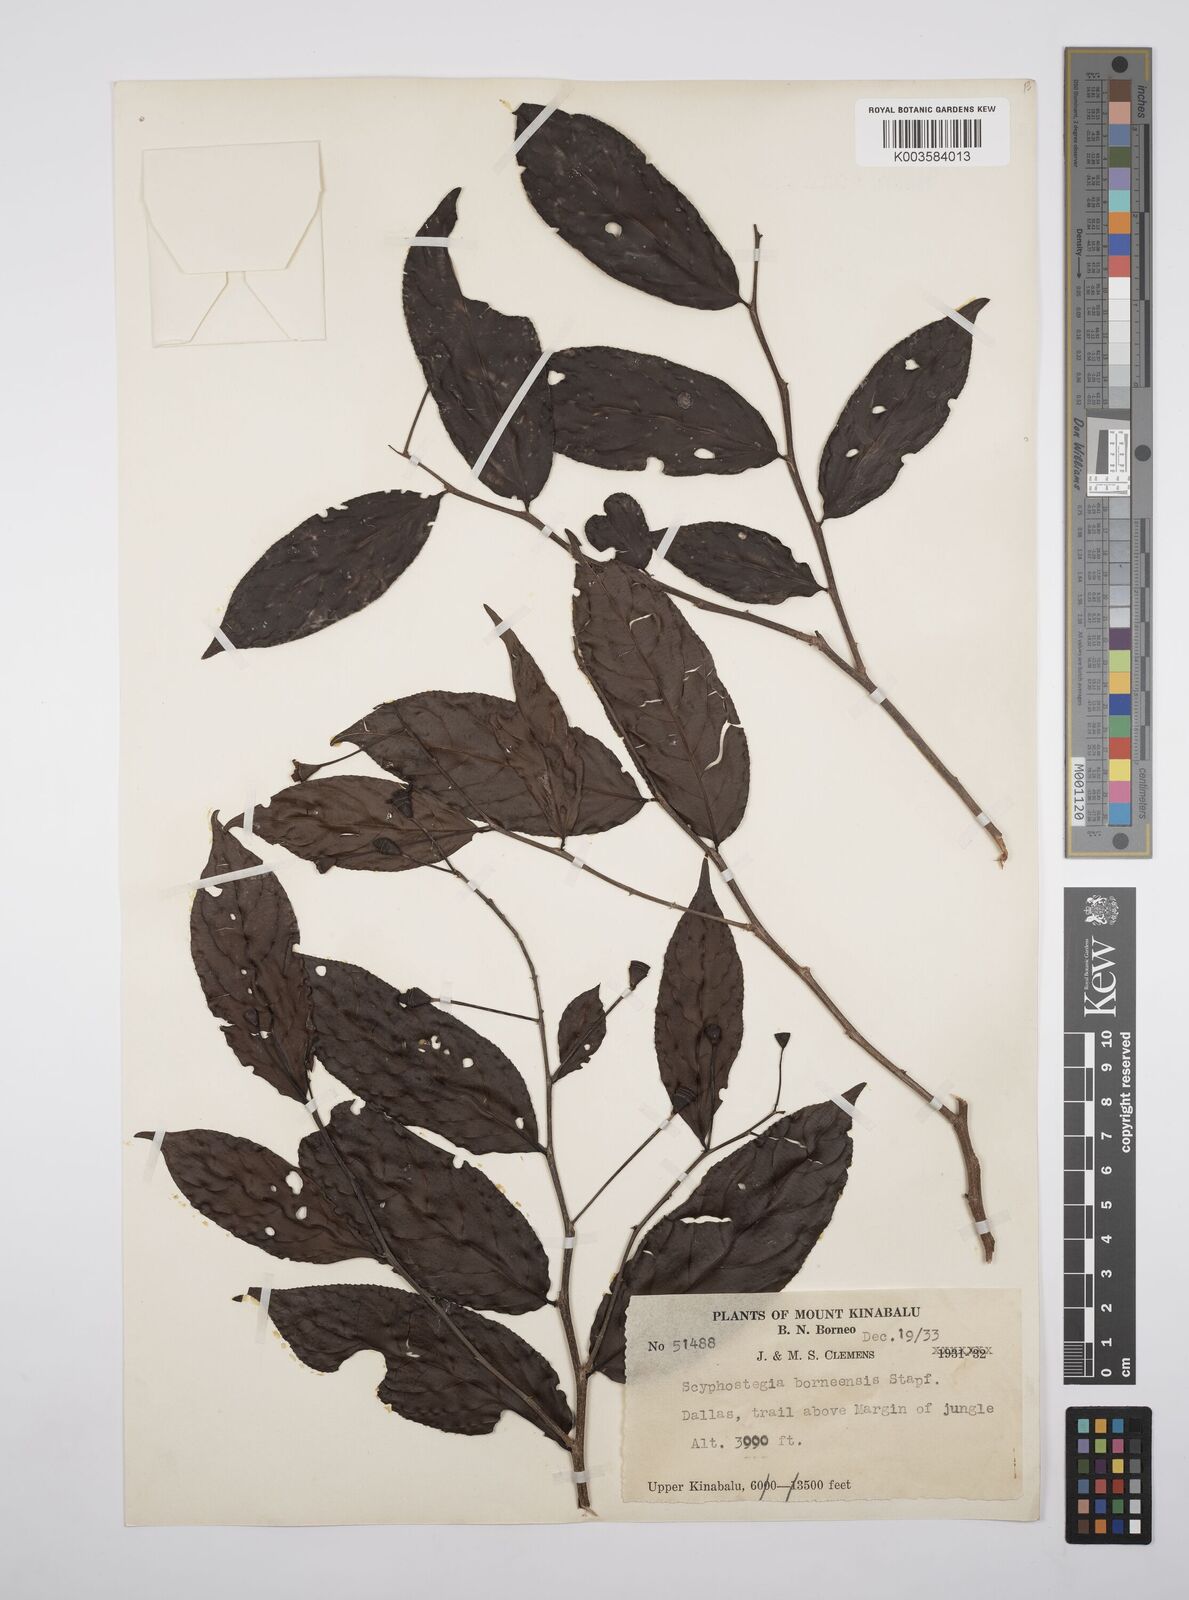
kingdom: Plantae
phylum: Tracheophyta
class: Magnoliopsida
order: Malpighiales
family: Salicaceae
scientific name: Salicaceae
